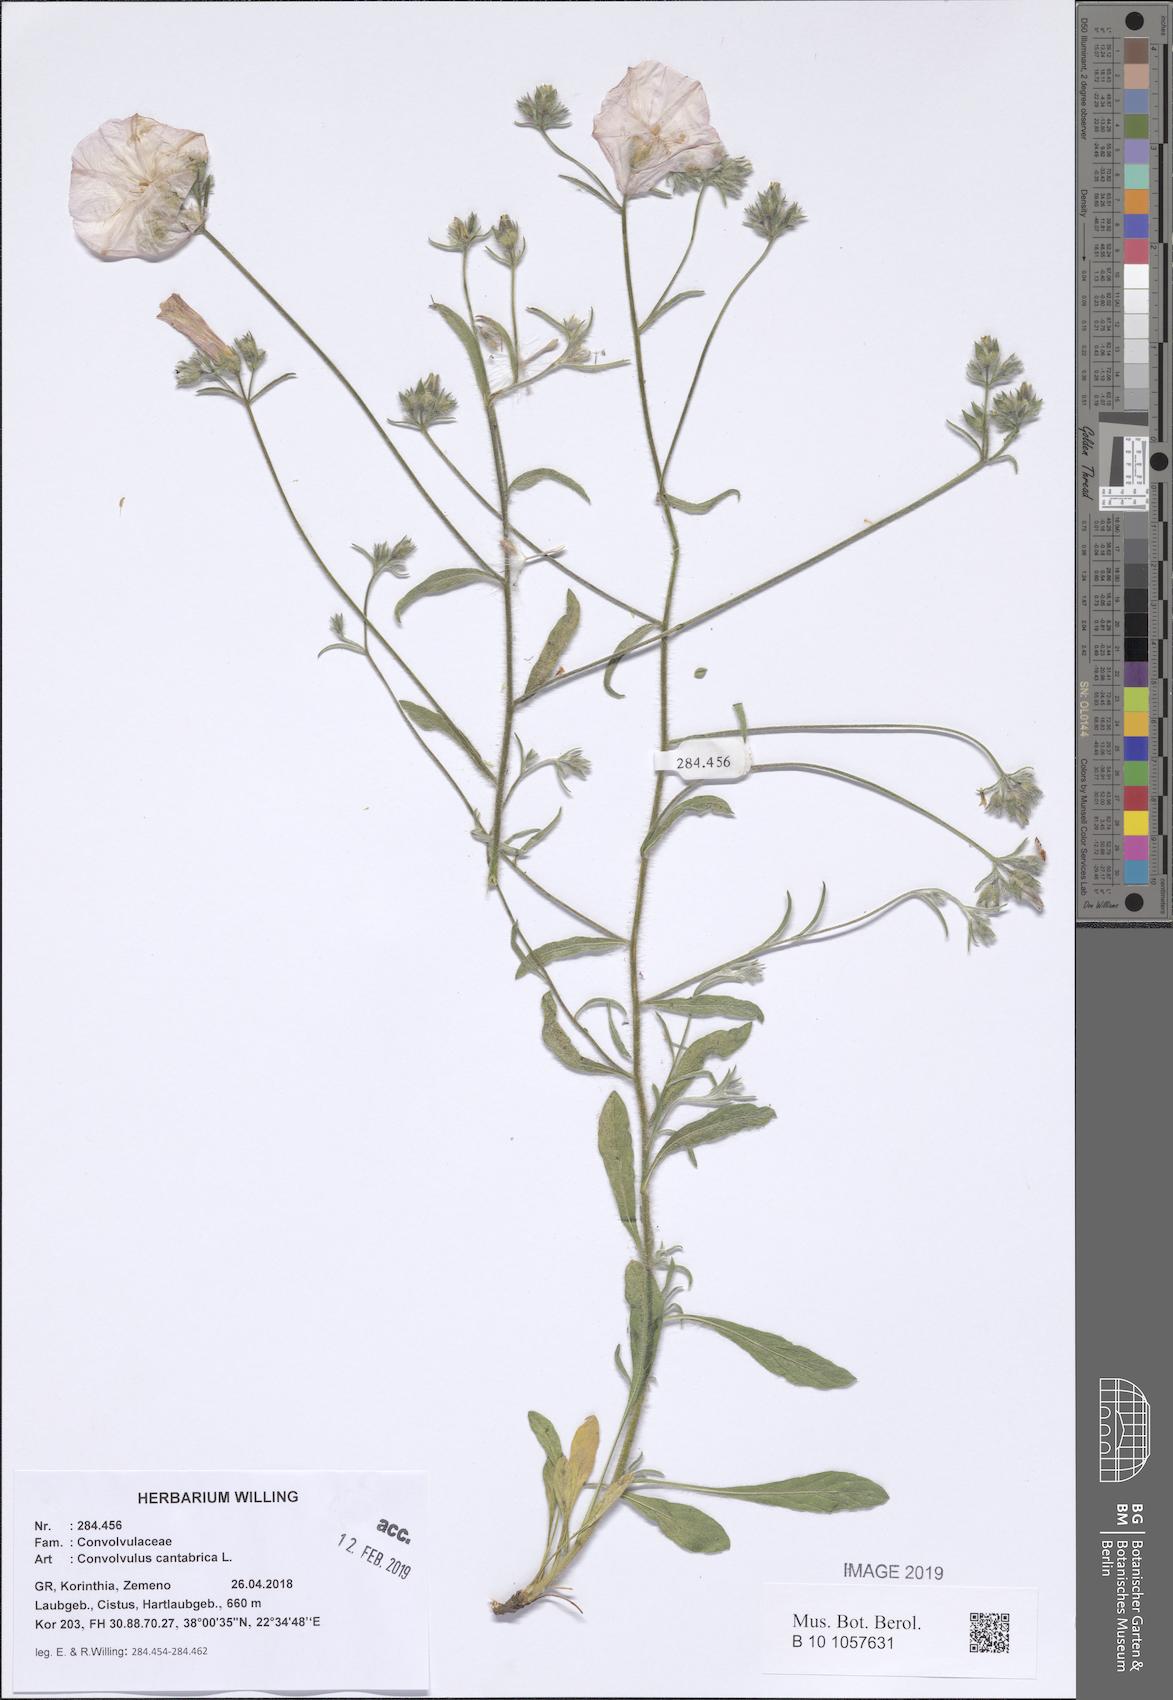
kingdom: Plantae
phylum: Tracheophyta
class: Magnoliopsida
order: Solanales
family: Convolvulaceae
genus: Convolvulus
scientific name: Convolvulus cantabrica
